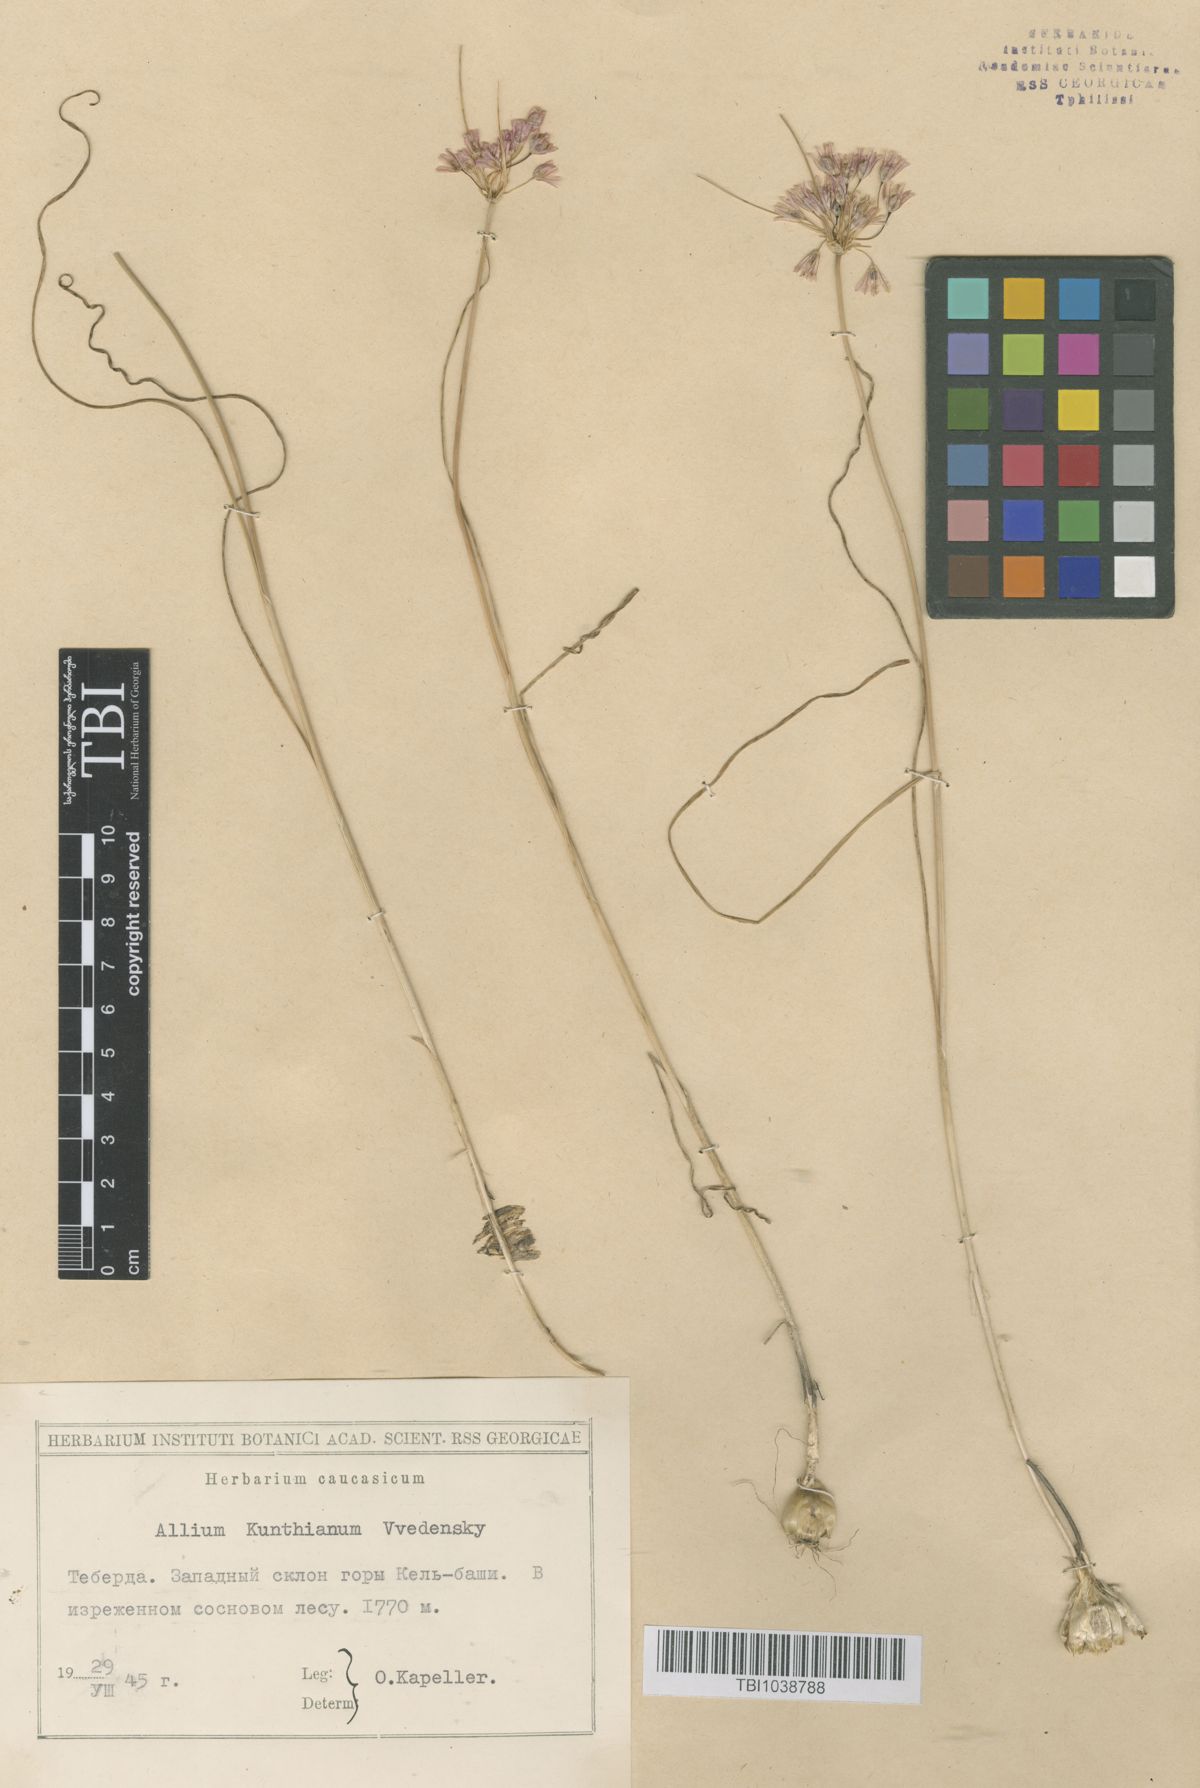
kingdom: Plantae
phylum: Tracheophyta
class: Liliopsida
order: Asparagales
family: Amaryllidaceae
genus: Allium
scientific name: Allium kunthianum
